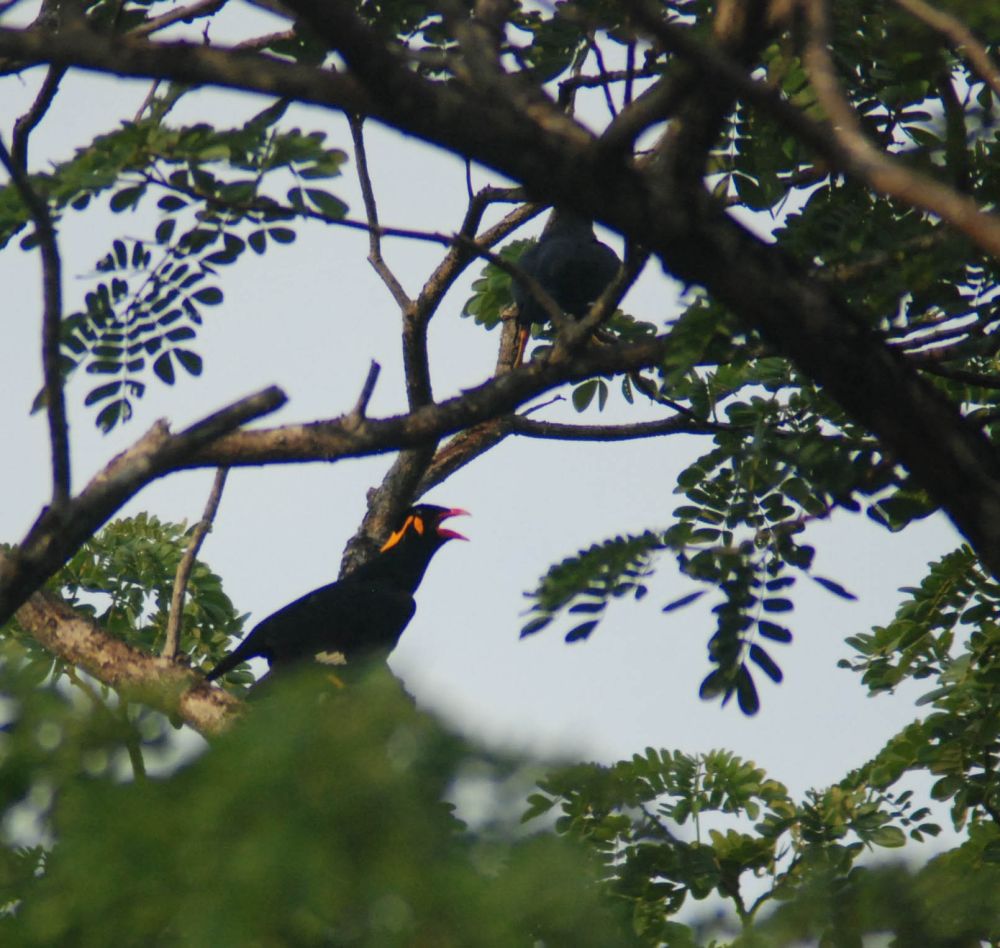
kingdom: Animalia
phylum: Chordata
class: Aves
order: Passeriformes
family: Sturnidae
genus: Gracula
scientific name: Gracula religiosa
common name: Common hill myna
